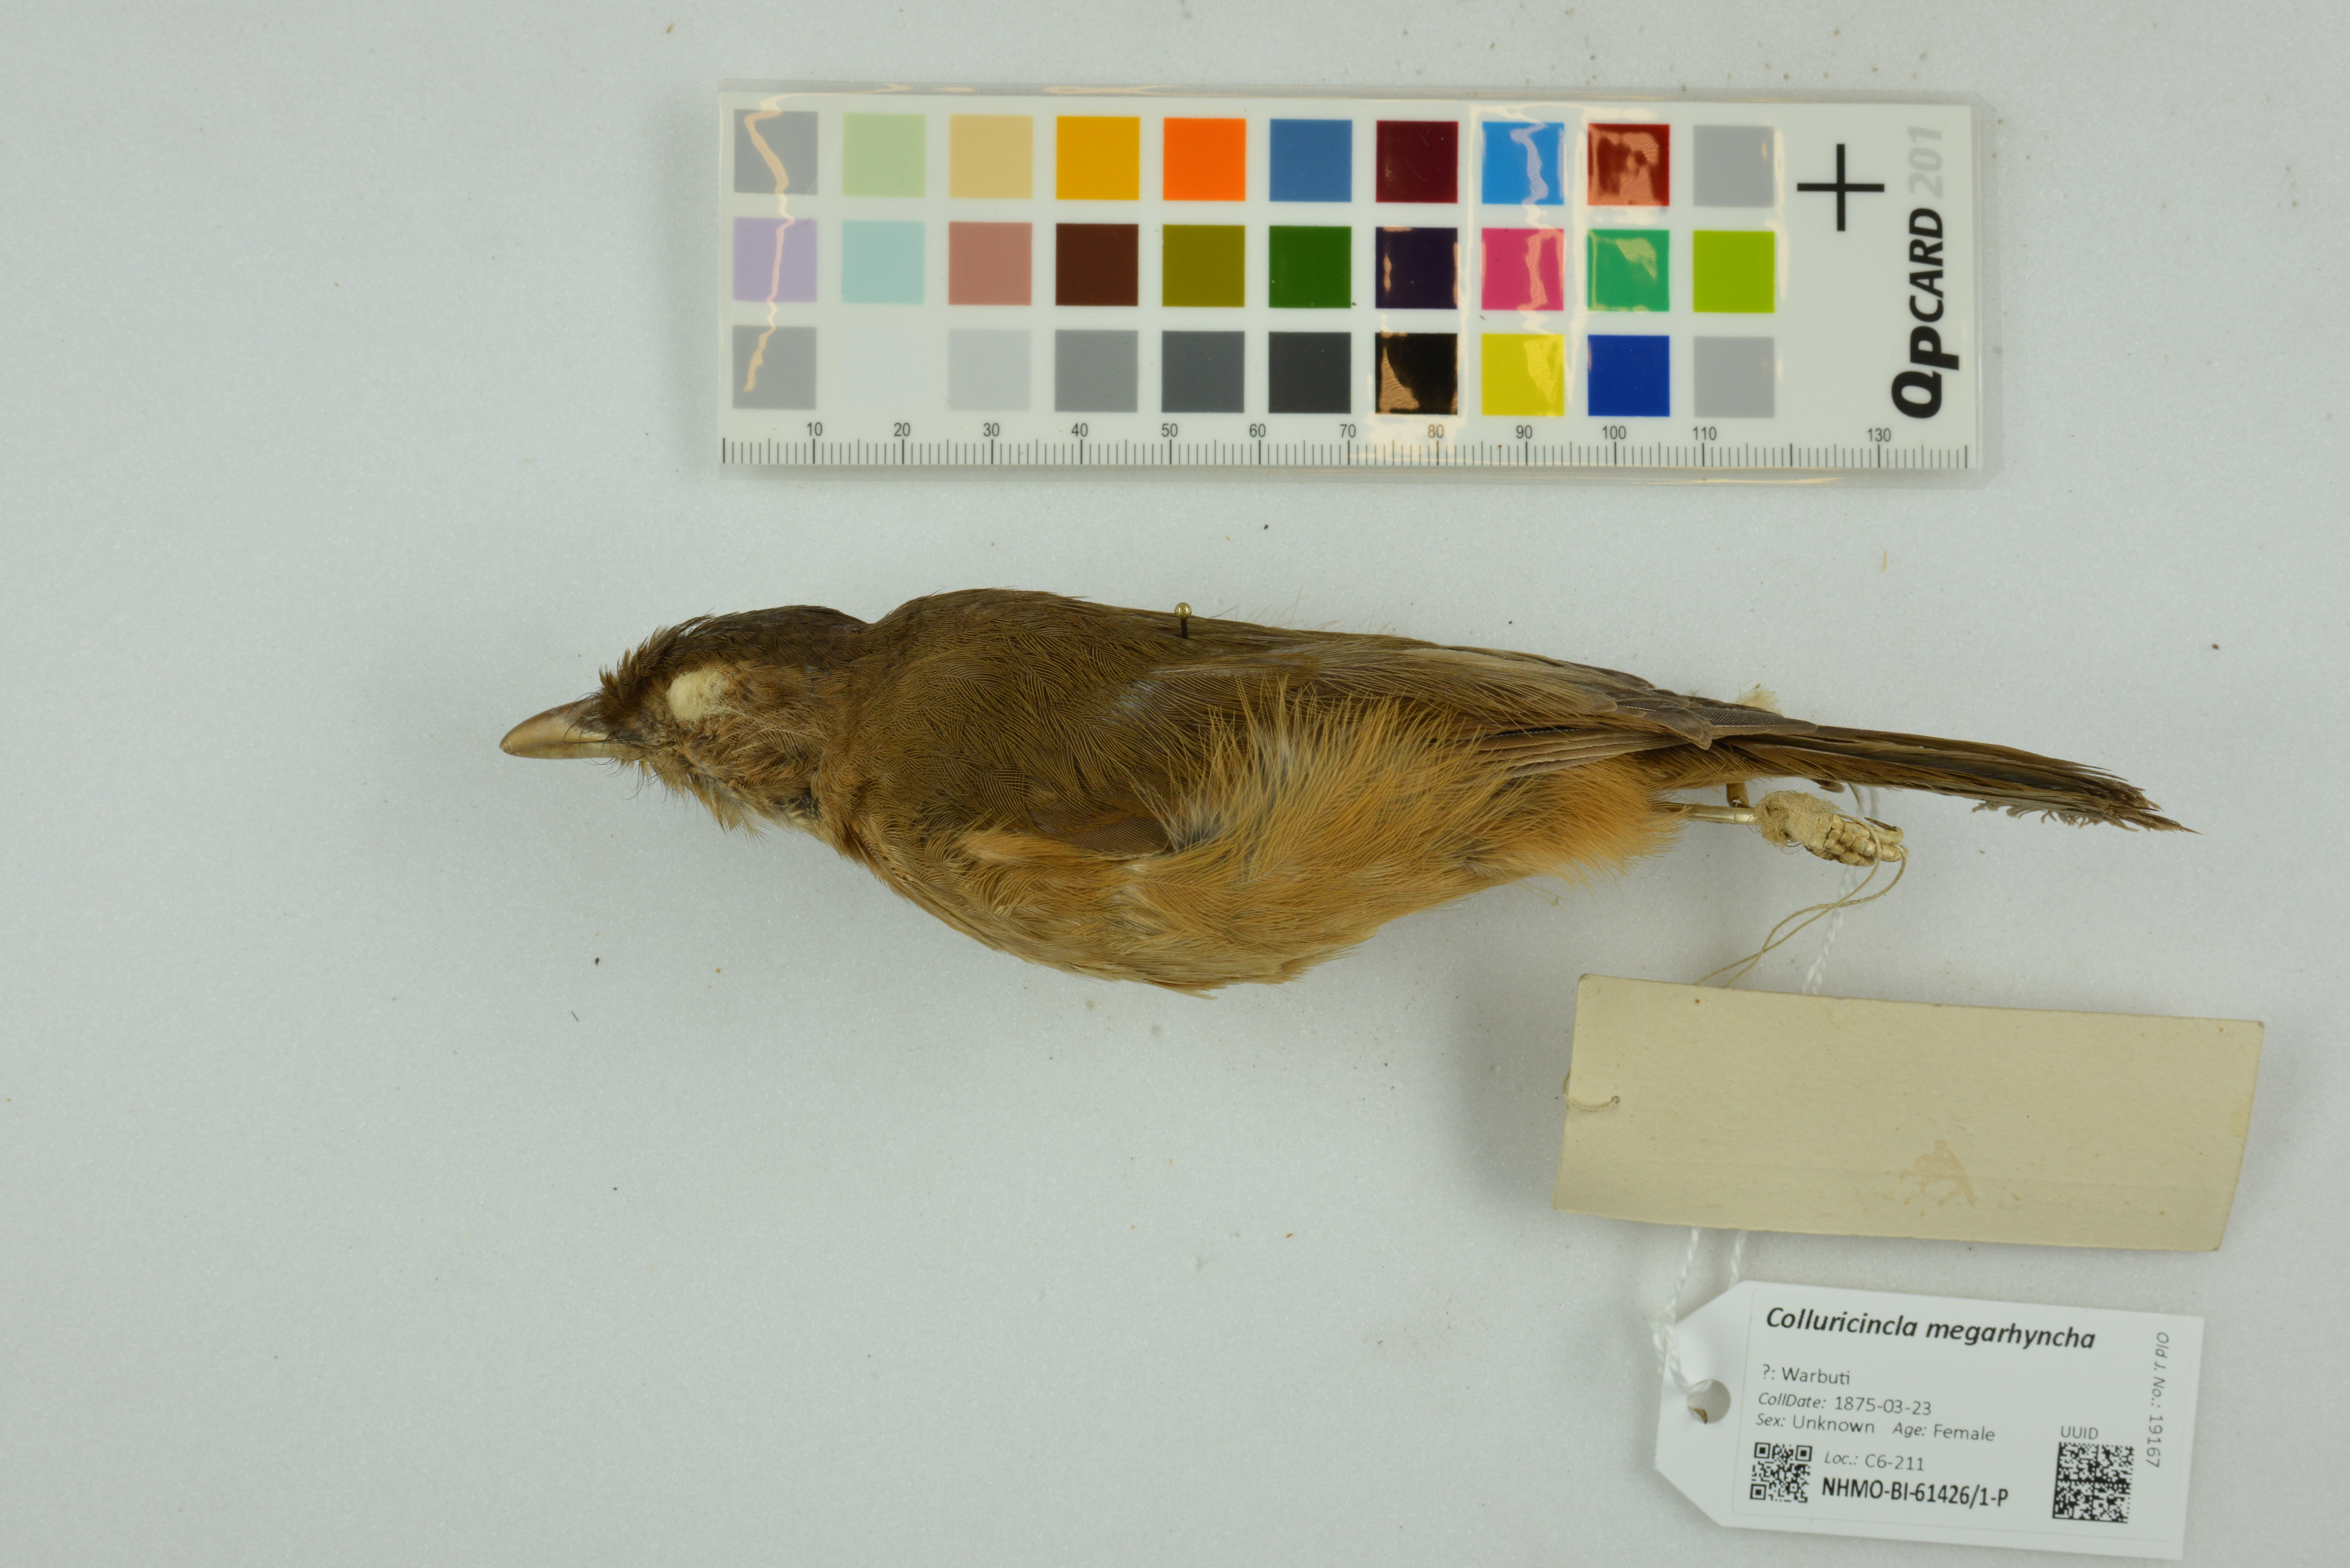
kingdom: Animalia
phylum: Chordata
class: Aves
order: Passeriformes
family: Pachycephalidae
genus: Colluricincla
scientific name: Colluricincla megarhyncha
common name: Little shrikethrush
